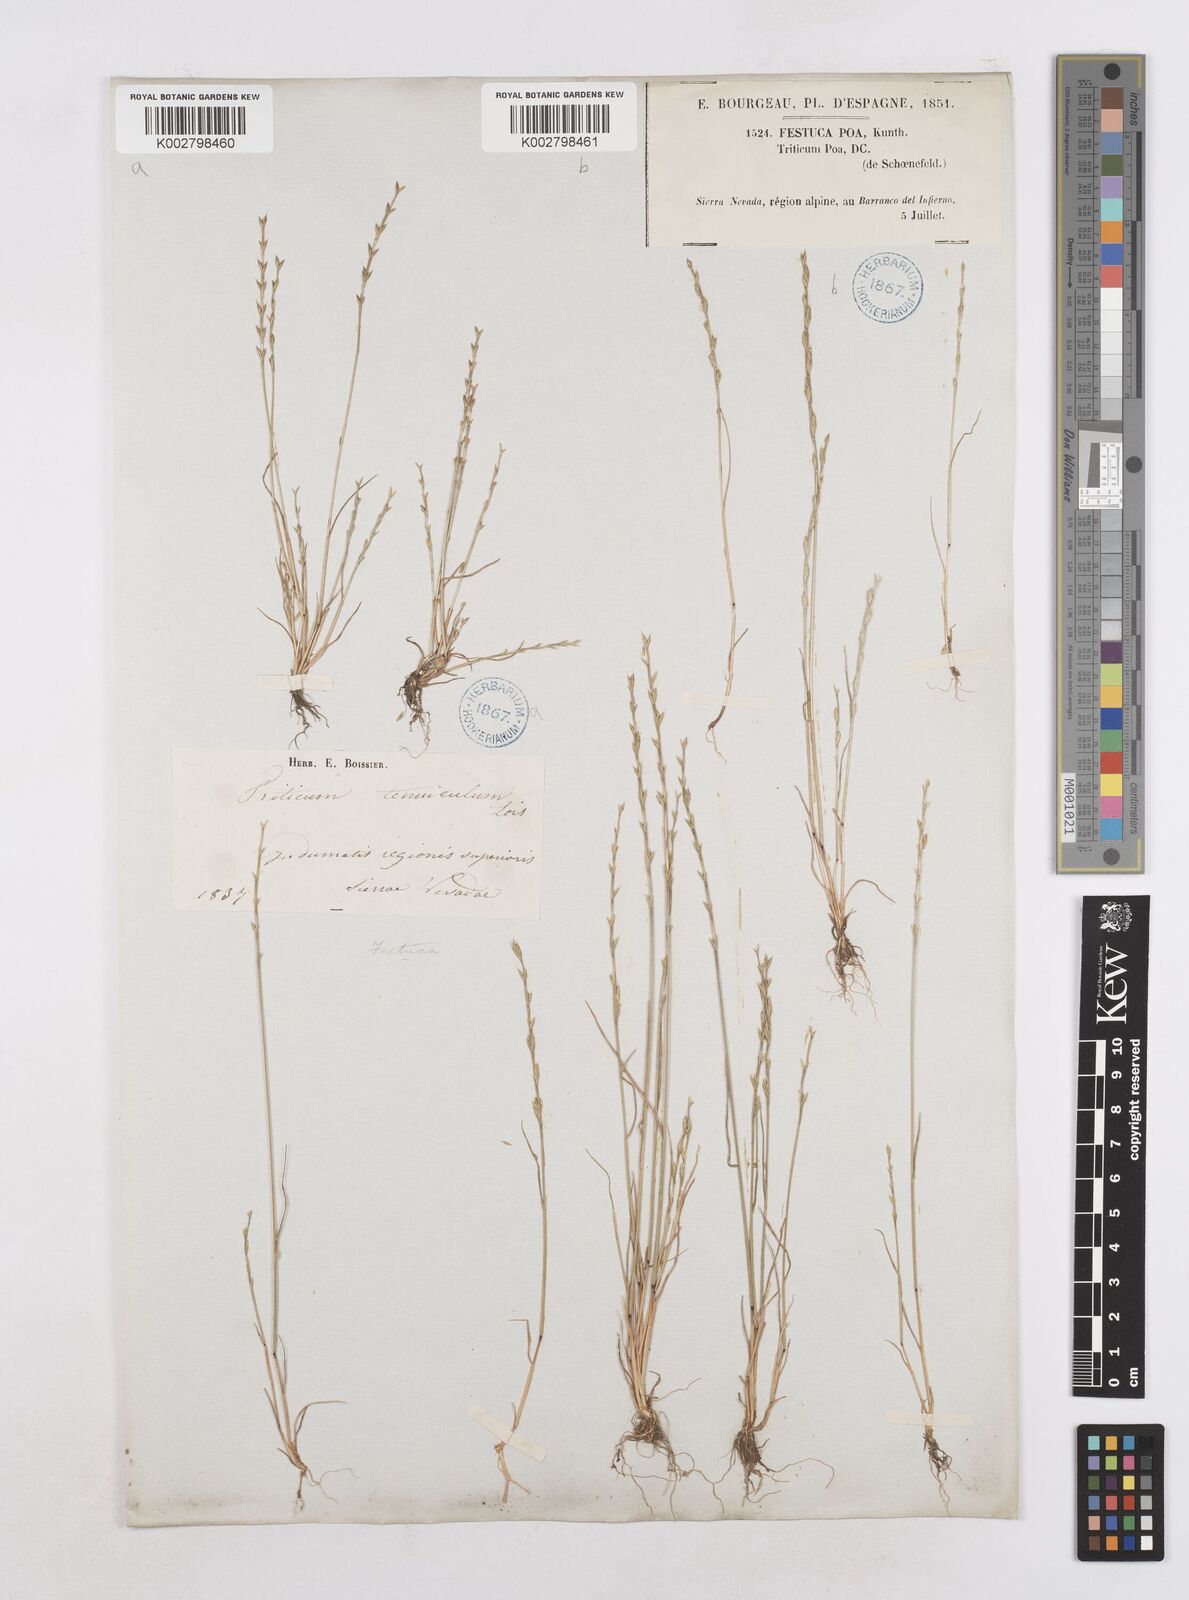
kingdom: Plantae
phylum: Tracheophyta
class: Liliopsida
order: Poales
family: Poaceae
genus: Festuca
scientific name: Festuca lachenalii
